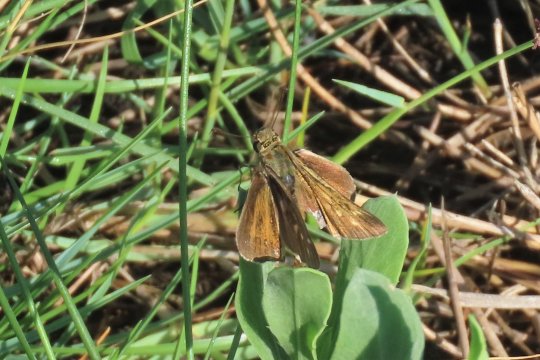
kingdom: Animalia
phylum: Arthropoda
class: Insecta
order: Lepidoptera
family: Hesperiidae
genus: Panoquina
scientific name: Panoquina panoquin
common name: Salt Marsh Skipper
